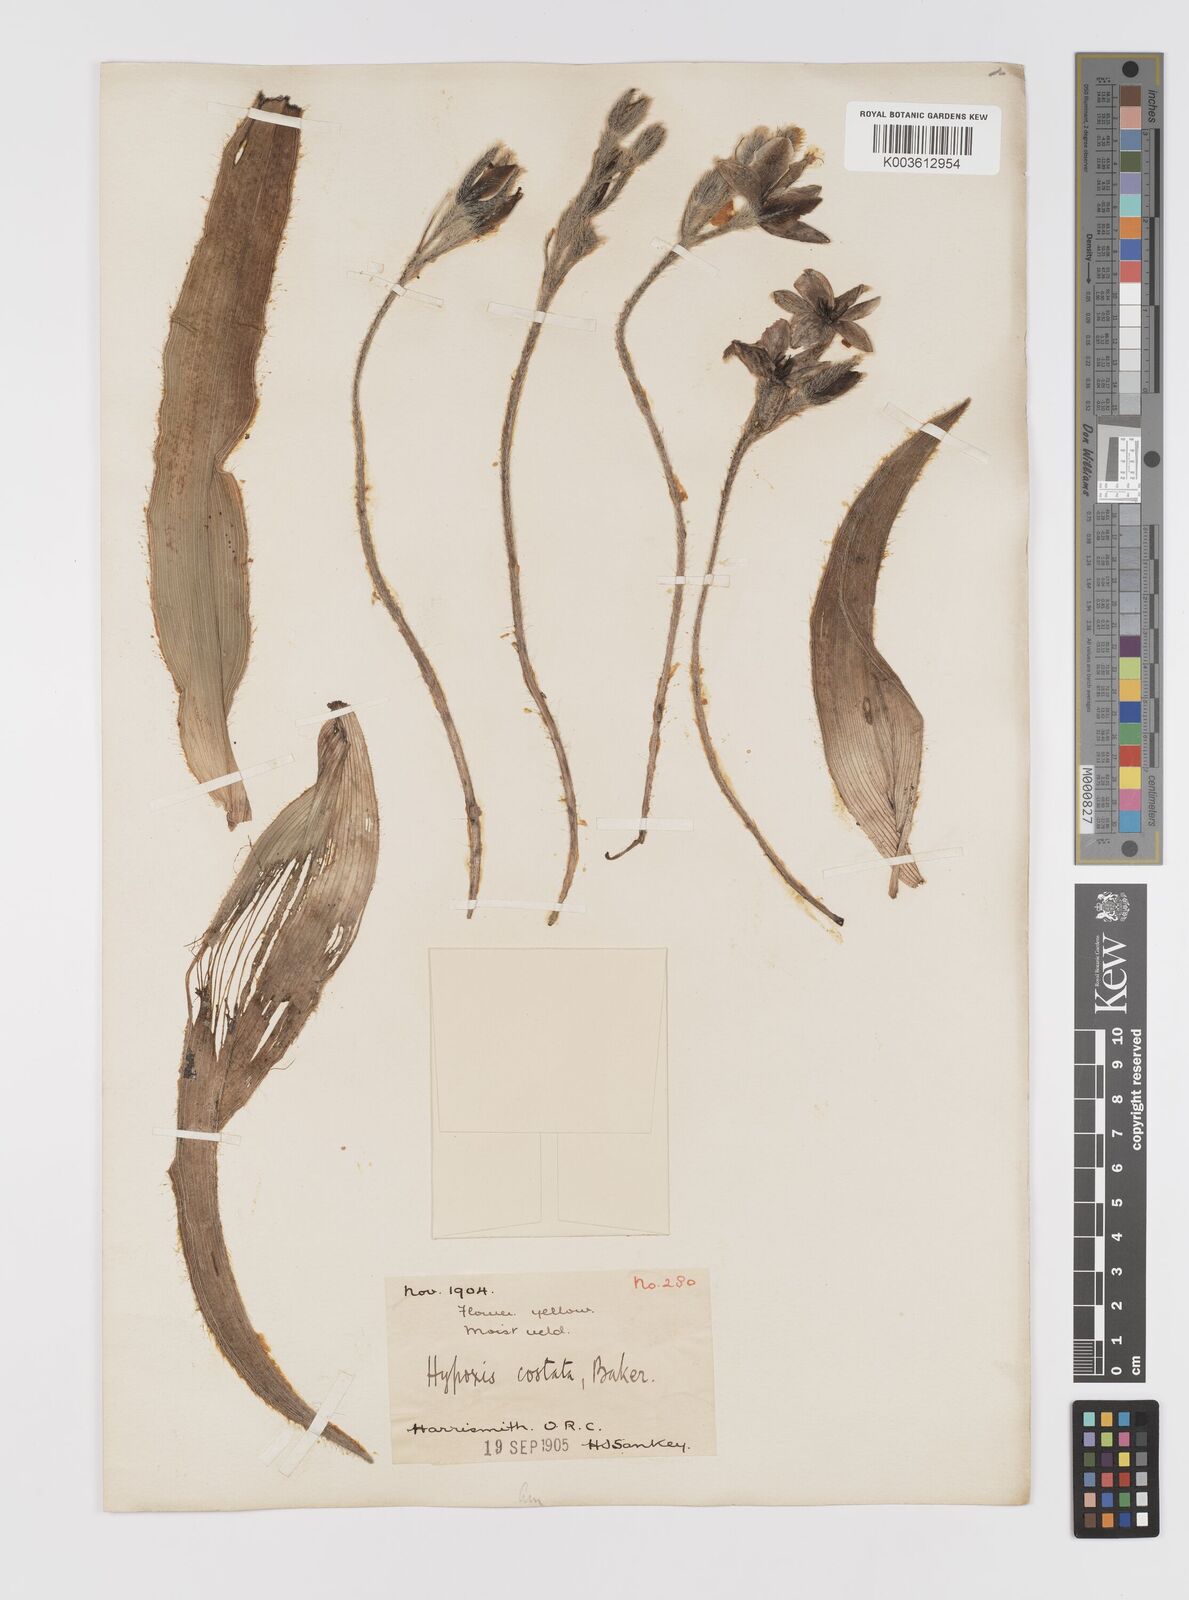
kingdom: Plantae
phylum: Tracheophyta
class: Liliopsida
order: Asparagales
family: Hypoxidaceae
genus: Hypoxis
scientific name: Hypoxis costata
